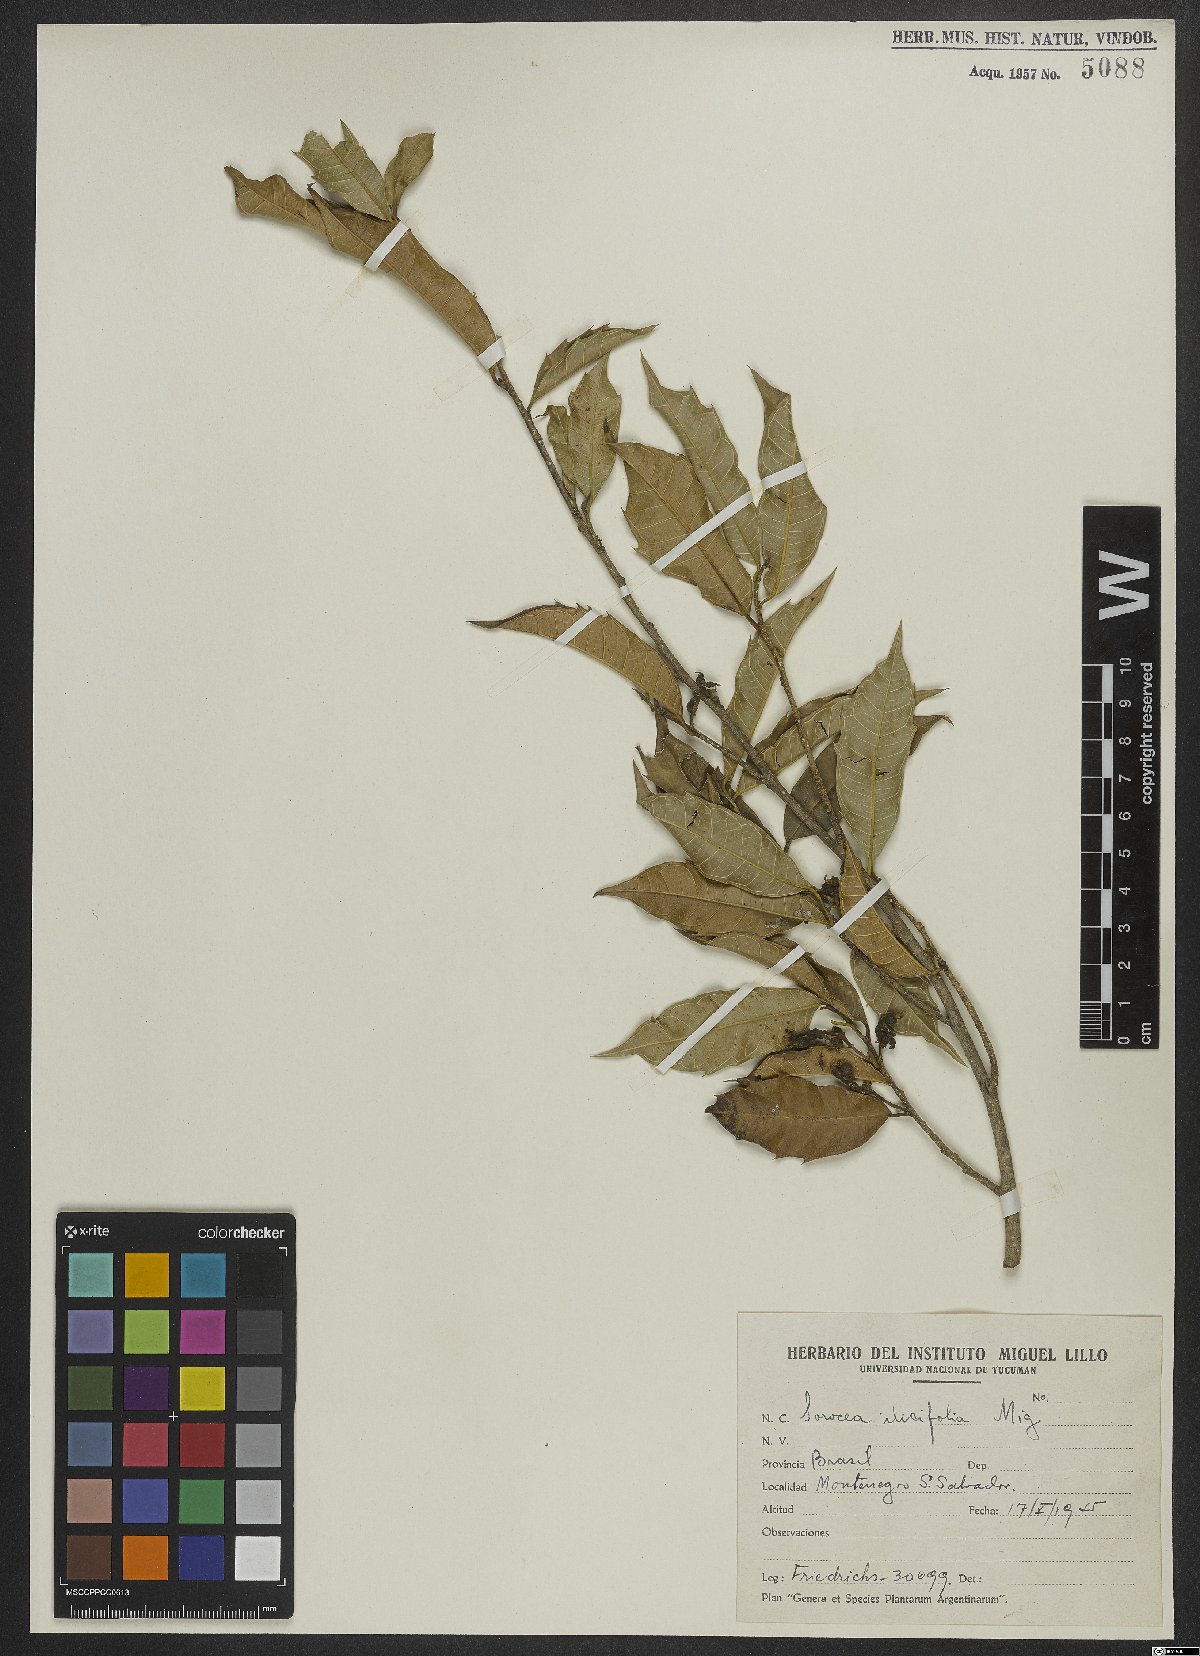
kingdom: Plantae
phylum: Tracheophyta
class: Magnoliopsida
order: Rosales
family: Moraceae
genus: Sorocea
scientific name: Sorocea
